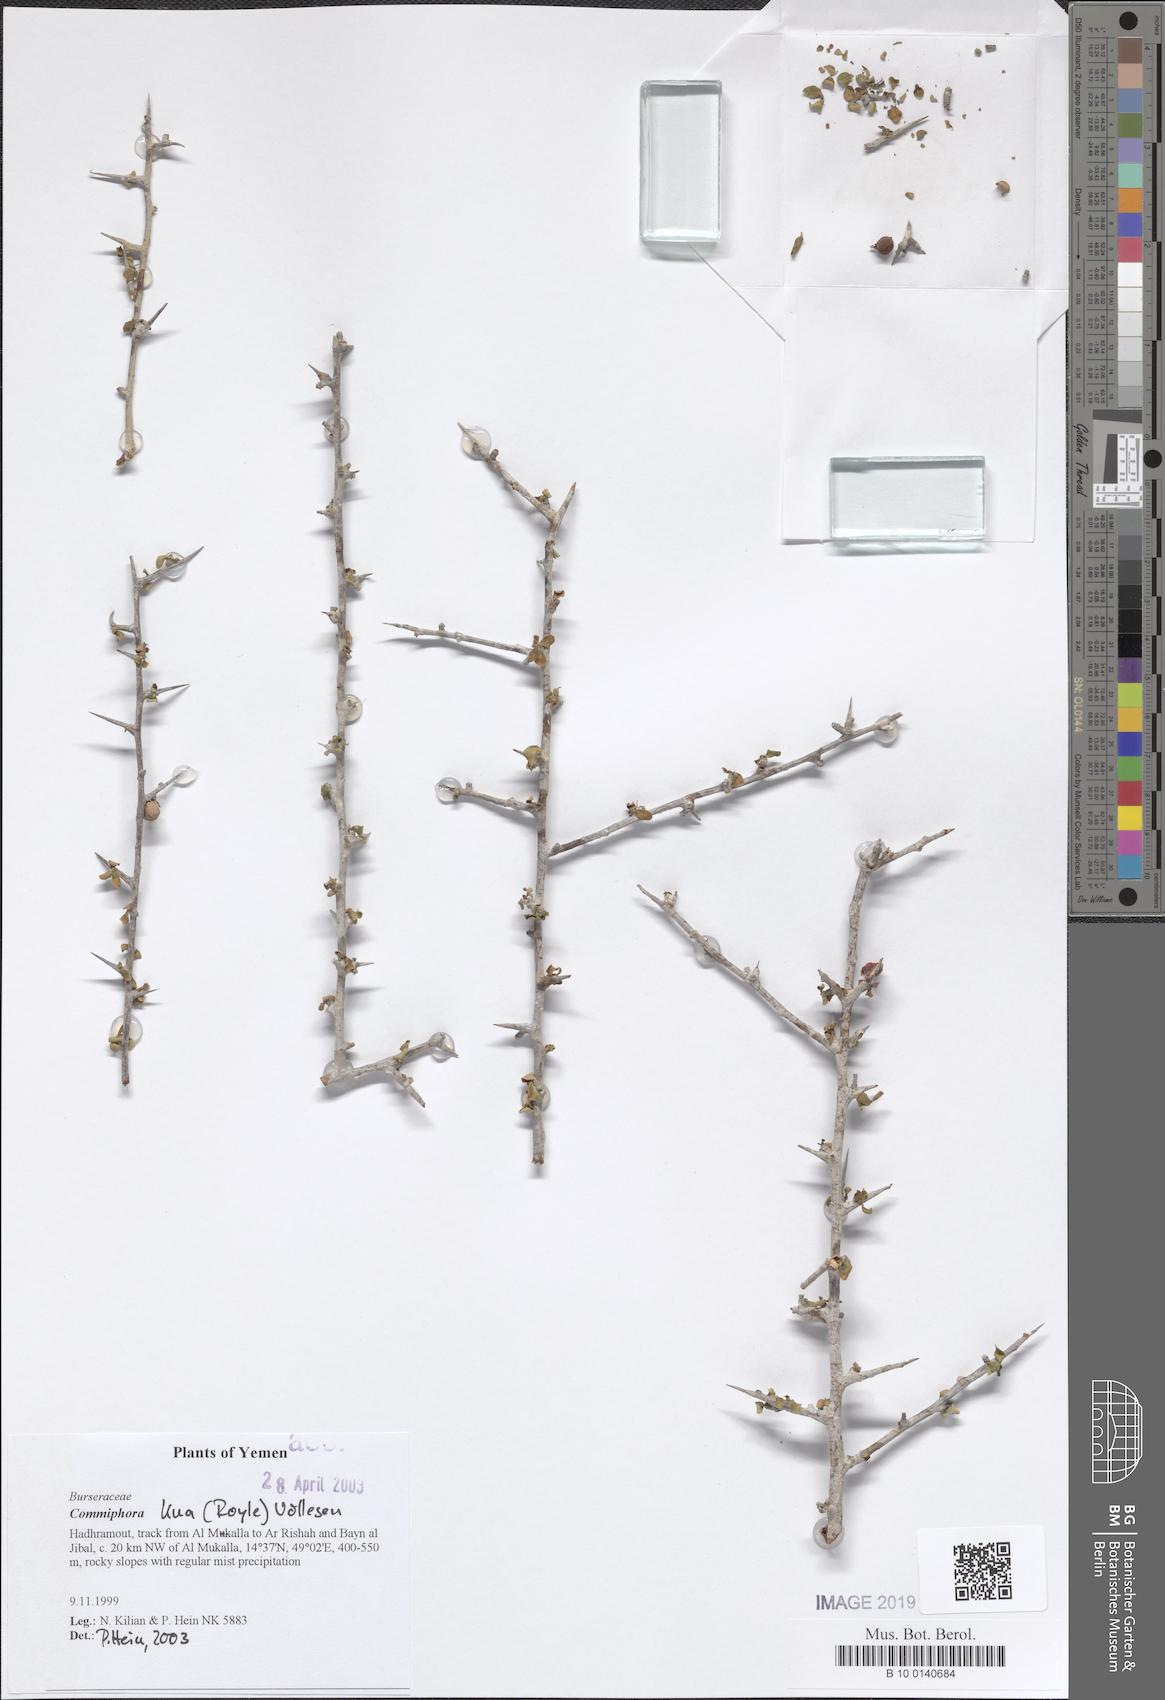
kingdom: Plantae
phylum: Tracheophyta
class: Magnoliopsida
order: Sapindales
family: Burseraceae
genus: Commiphora
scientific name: Commiphora kua
